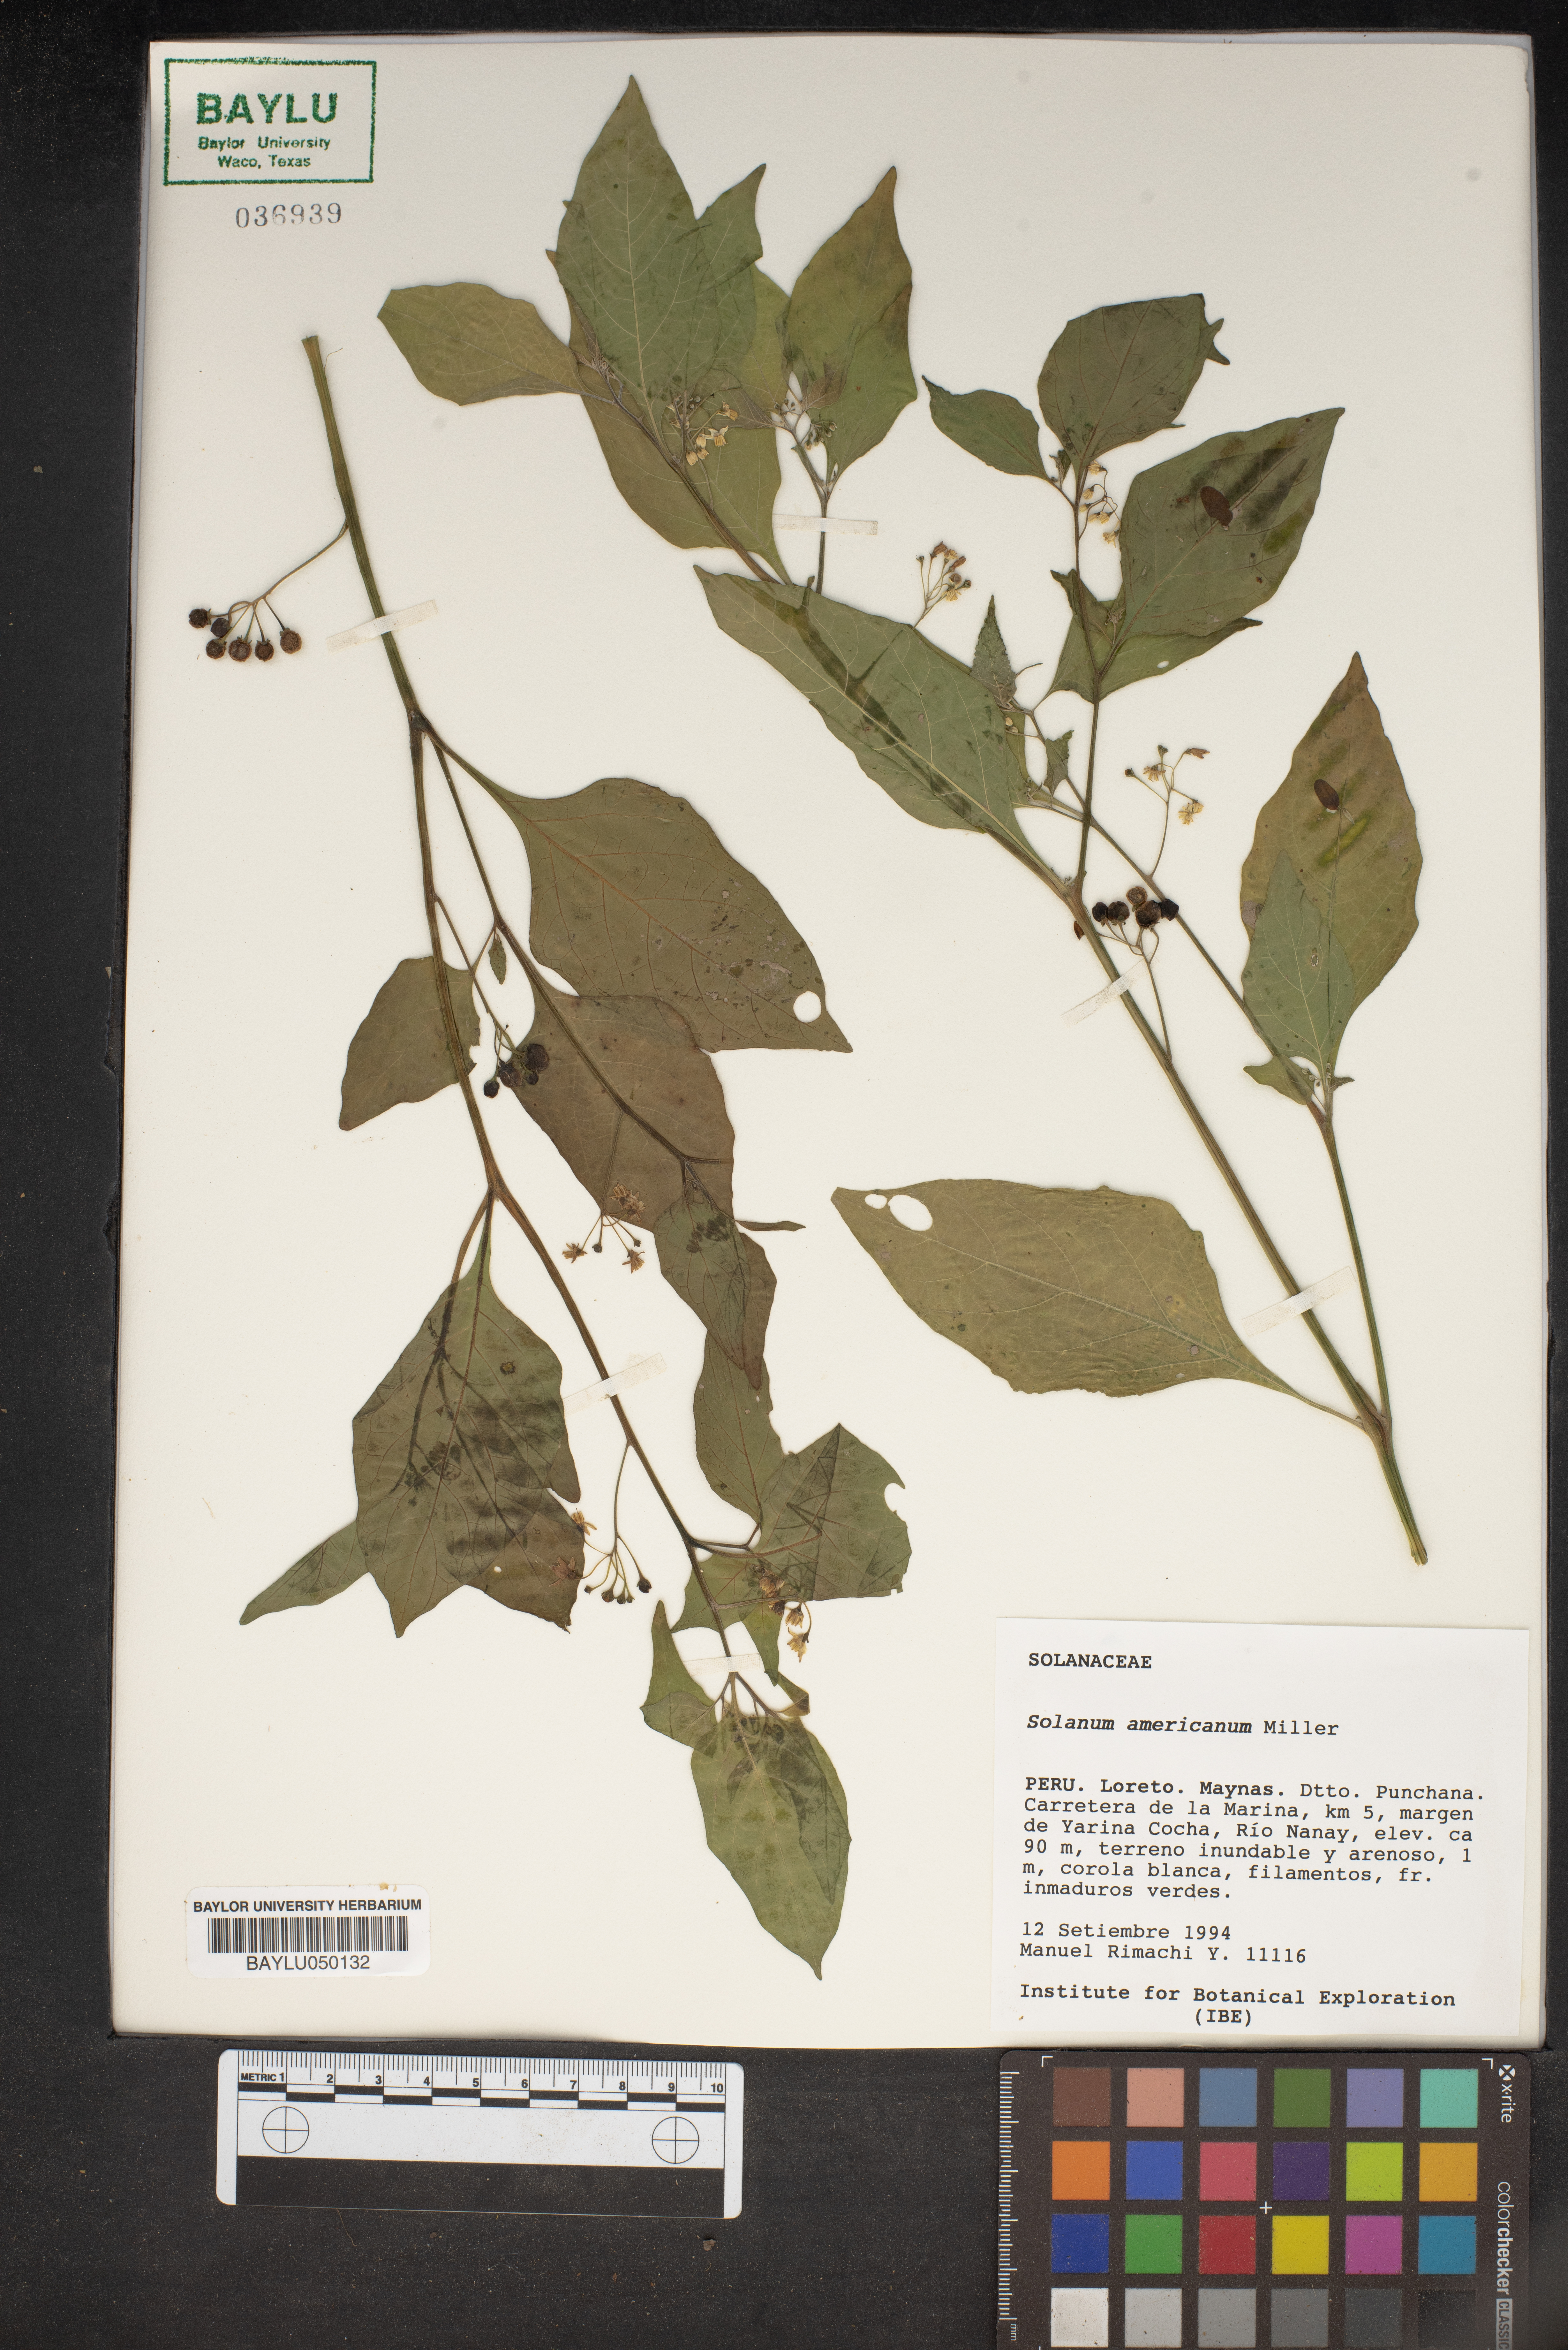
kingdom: Plantae
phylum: Tracheophyta
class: Magnoliopsida
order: Solanales
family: Solanaceae
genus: Solanum
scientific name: Solanum americanum
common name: American black nightshade
